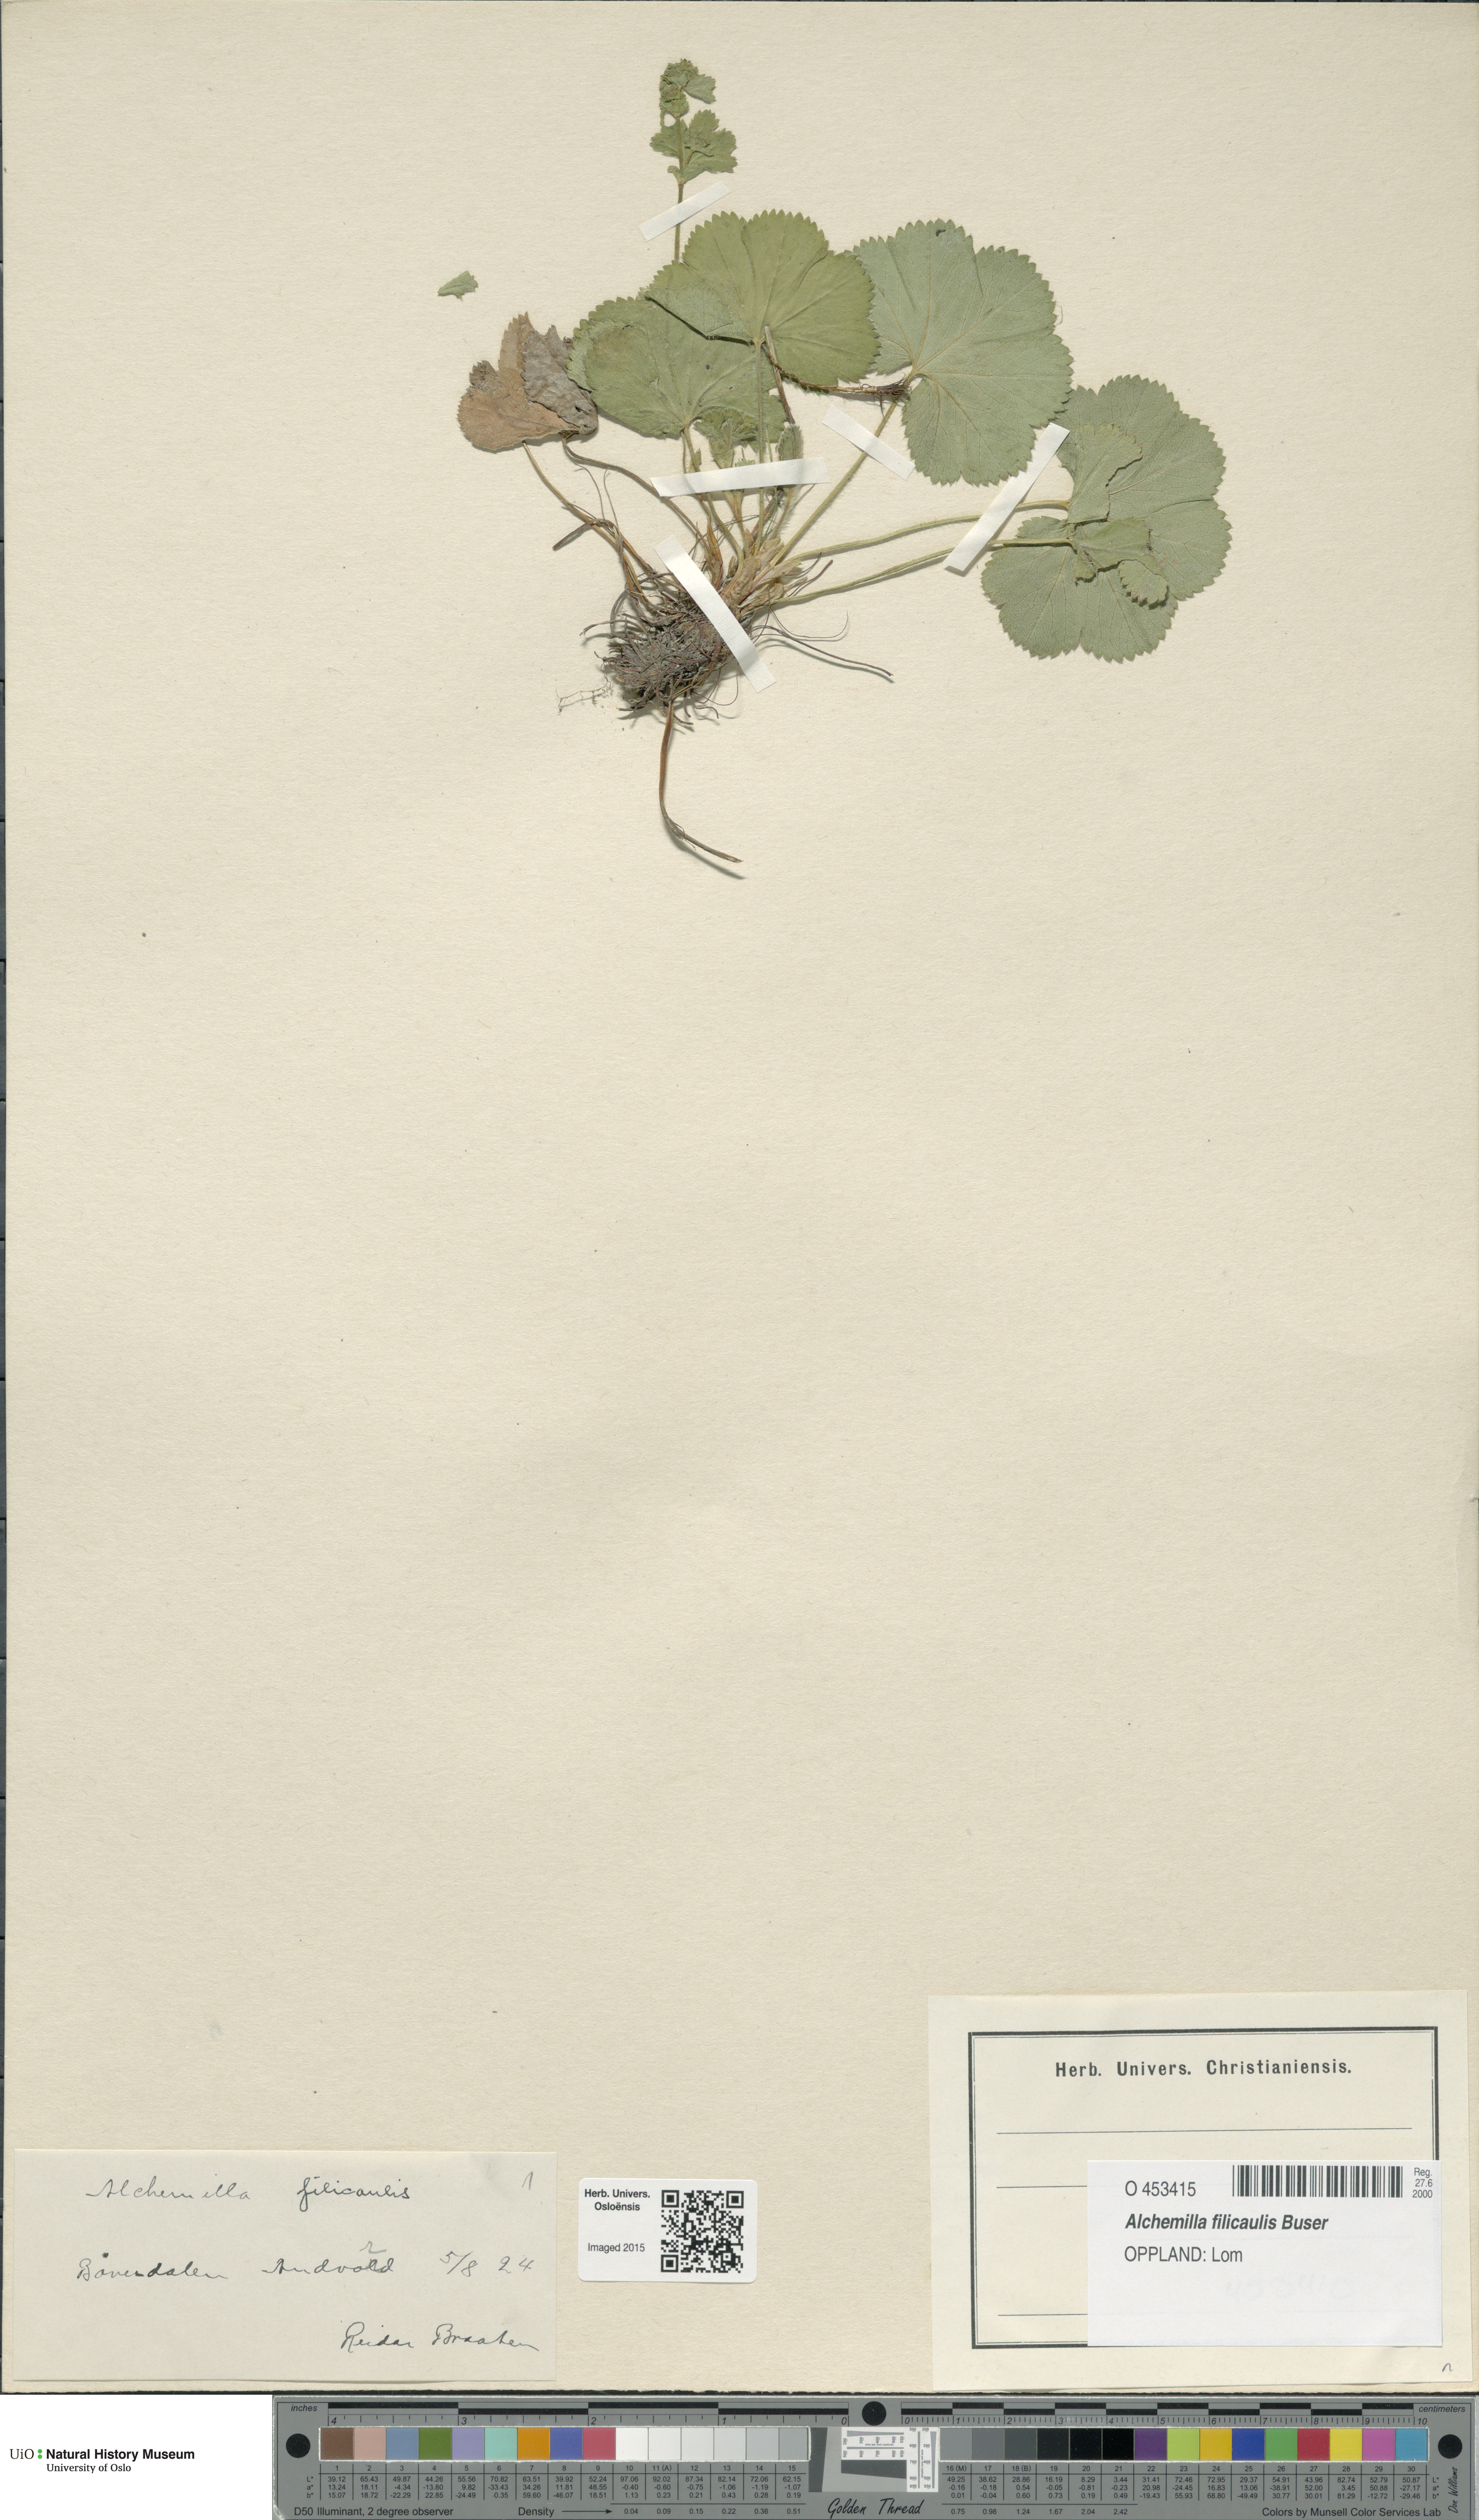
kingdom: Plantae
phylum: Tracheophyta
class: Magnoliopsida
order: Rosales
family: Rosaceae
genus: Alchemilla
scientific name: Alchemilla filicaulis
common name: Hairy lady's-mantle
